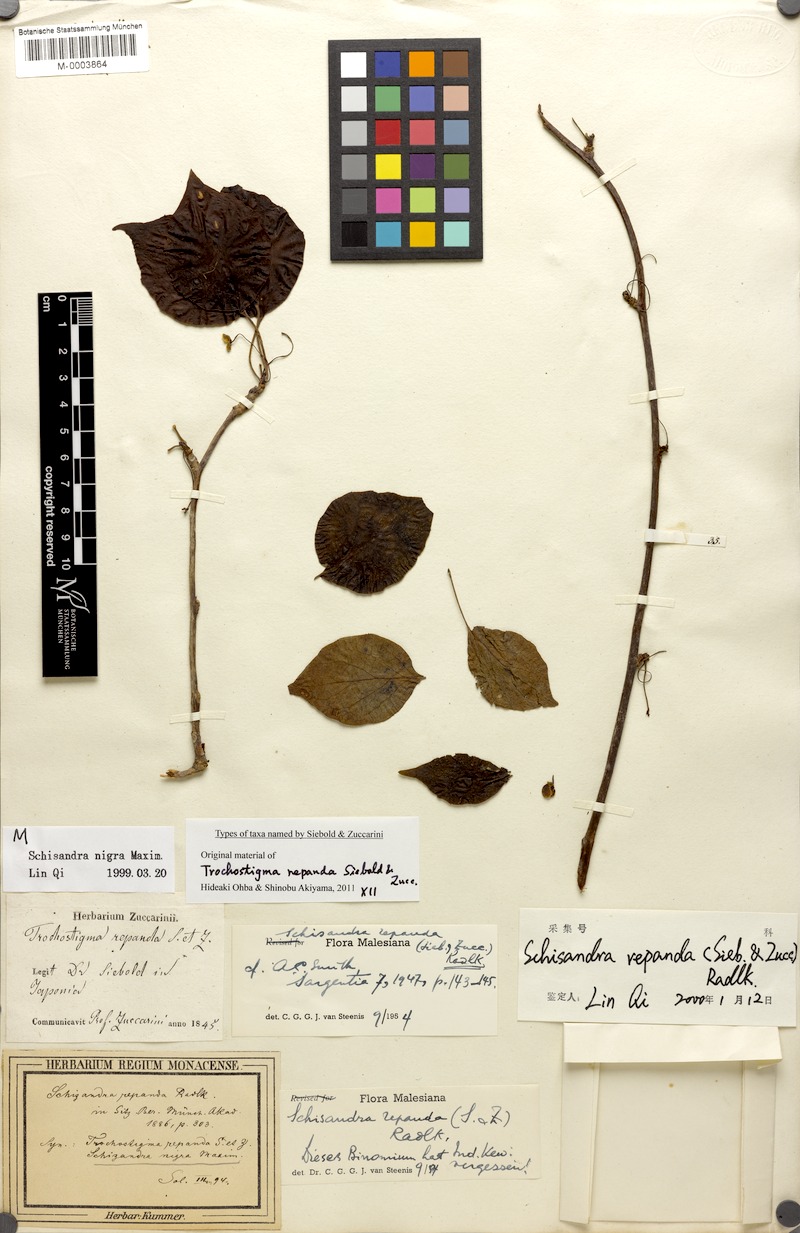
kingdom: Plantae
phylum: Tracheophyta
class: Magnoliopsida
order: Austrobaileyales
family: Schisandraceae
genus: Schisandra
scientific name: Schisandra repanda
